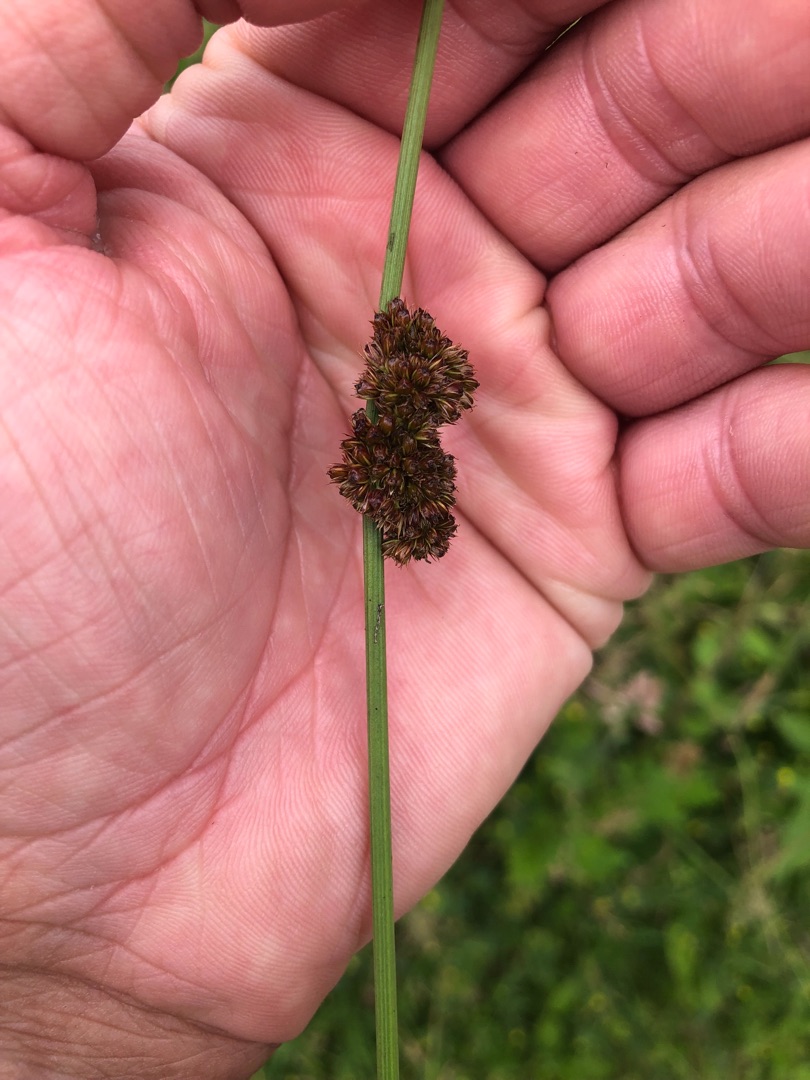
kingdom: Plantae
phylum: Tracheophyta
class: Liliopsida
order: Poales
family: Juncaceae
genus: Juncus
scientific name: Juncus conglomeratus
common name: Knop-siv
